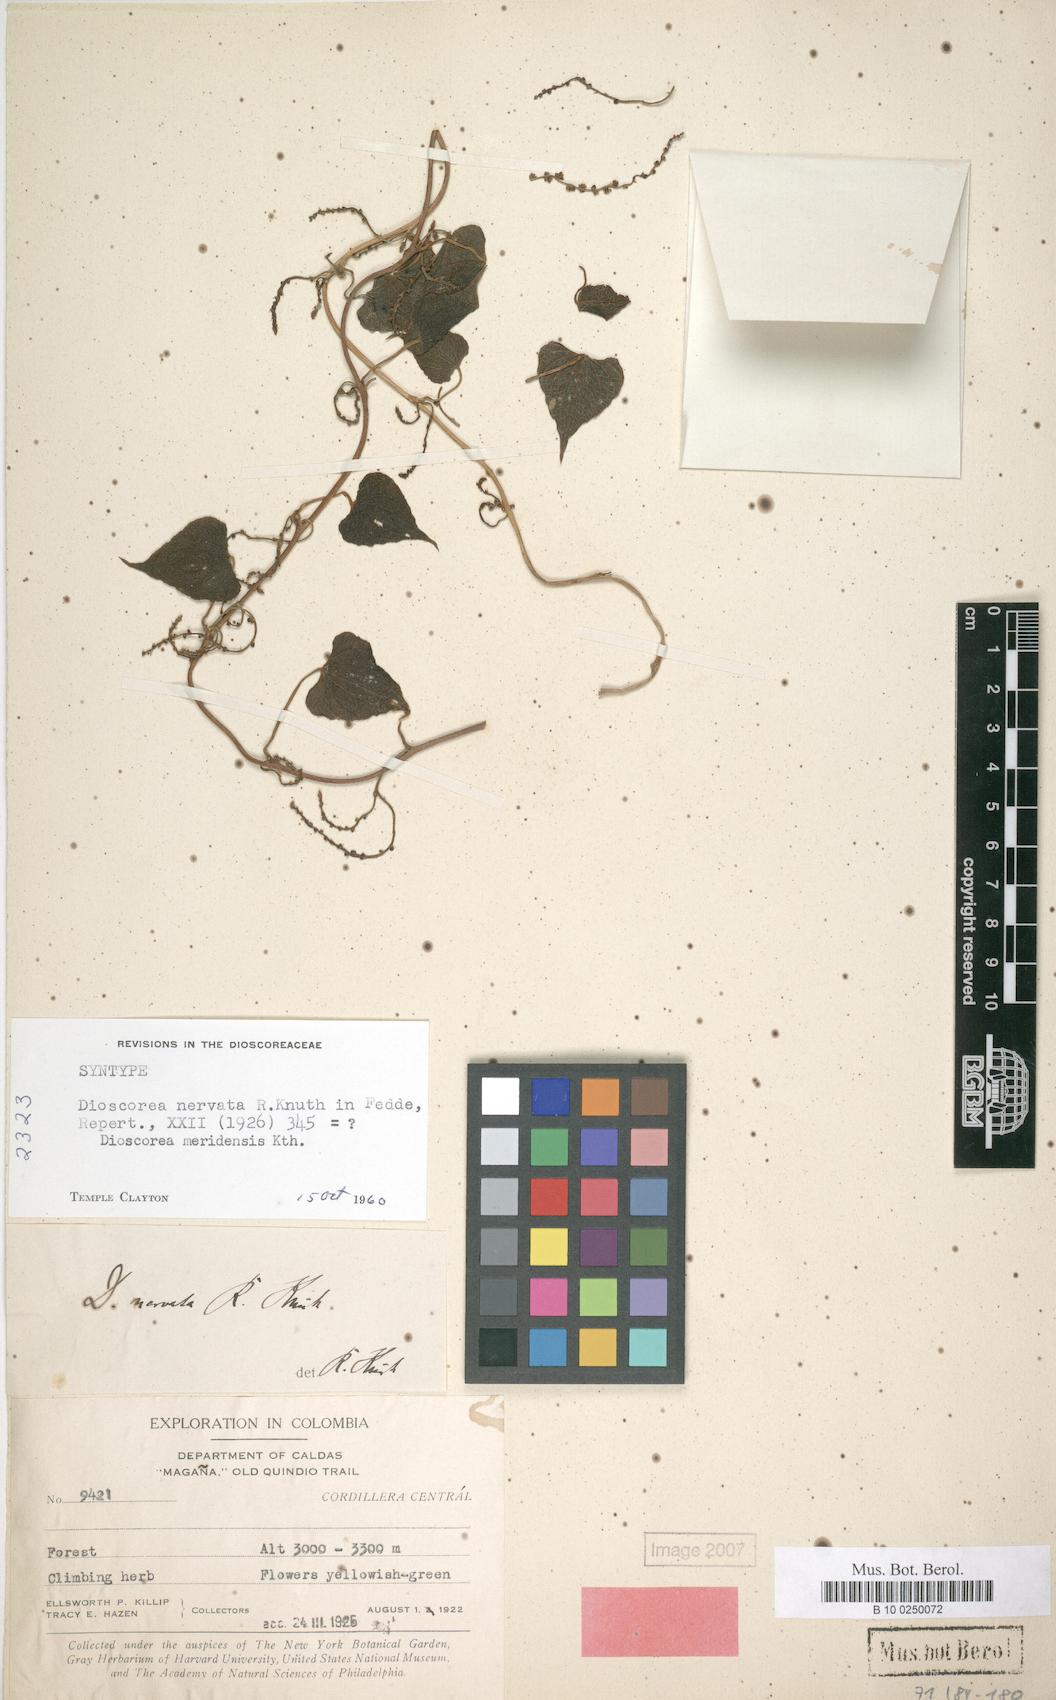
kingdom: Plantae
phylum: Tracheophyta
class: Liliopsida
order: Dioscoreales
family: Dioscoreaceae
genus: Dioscorea
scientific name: Dioscorea nervata
